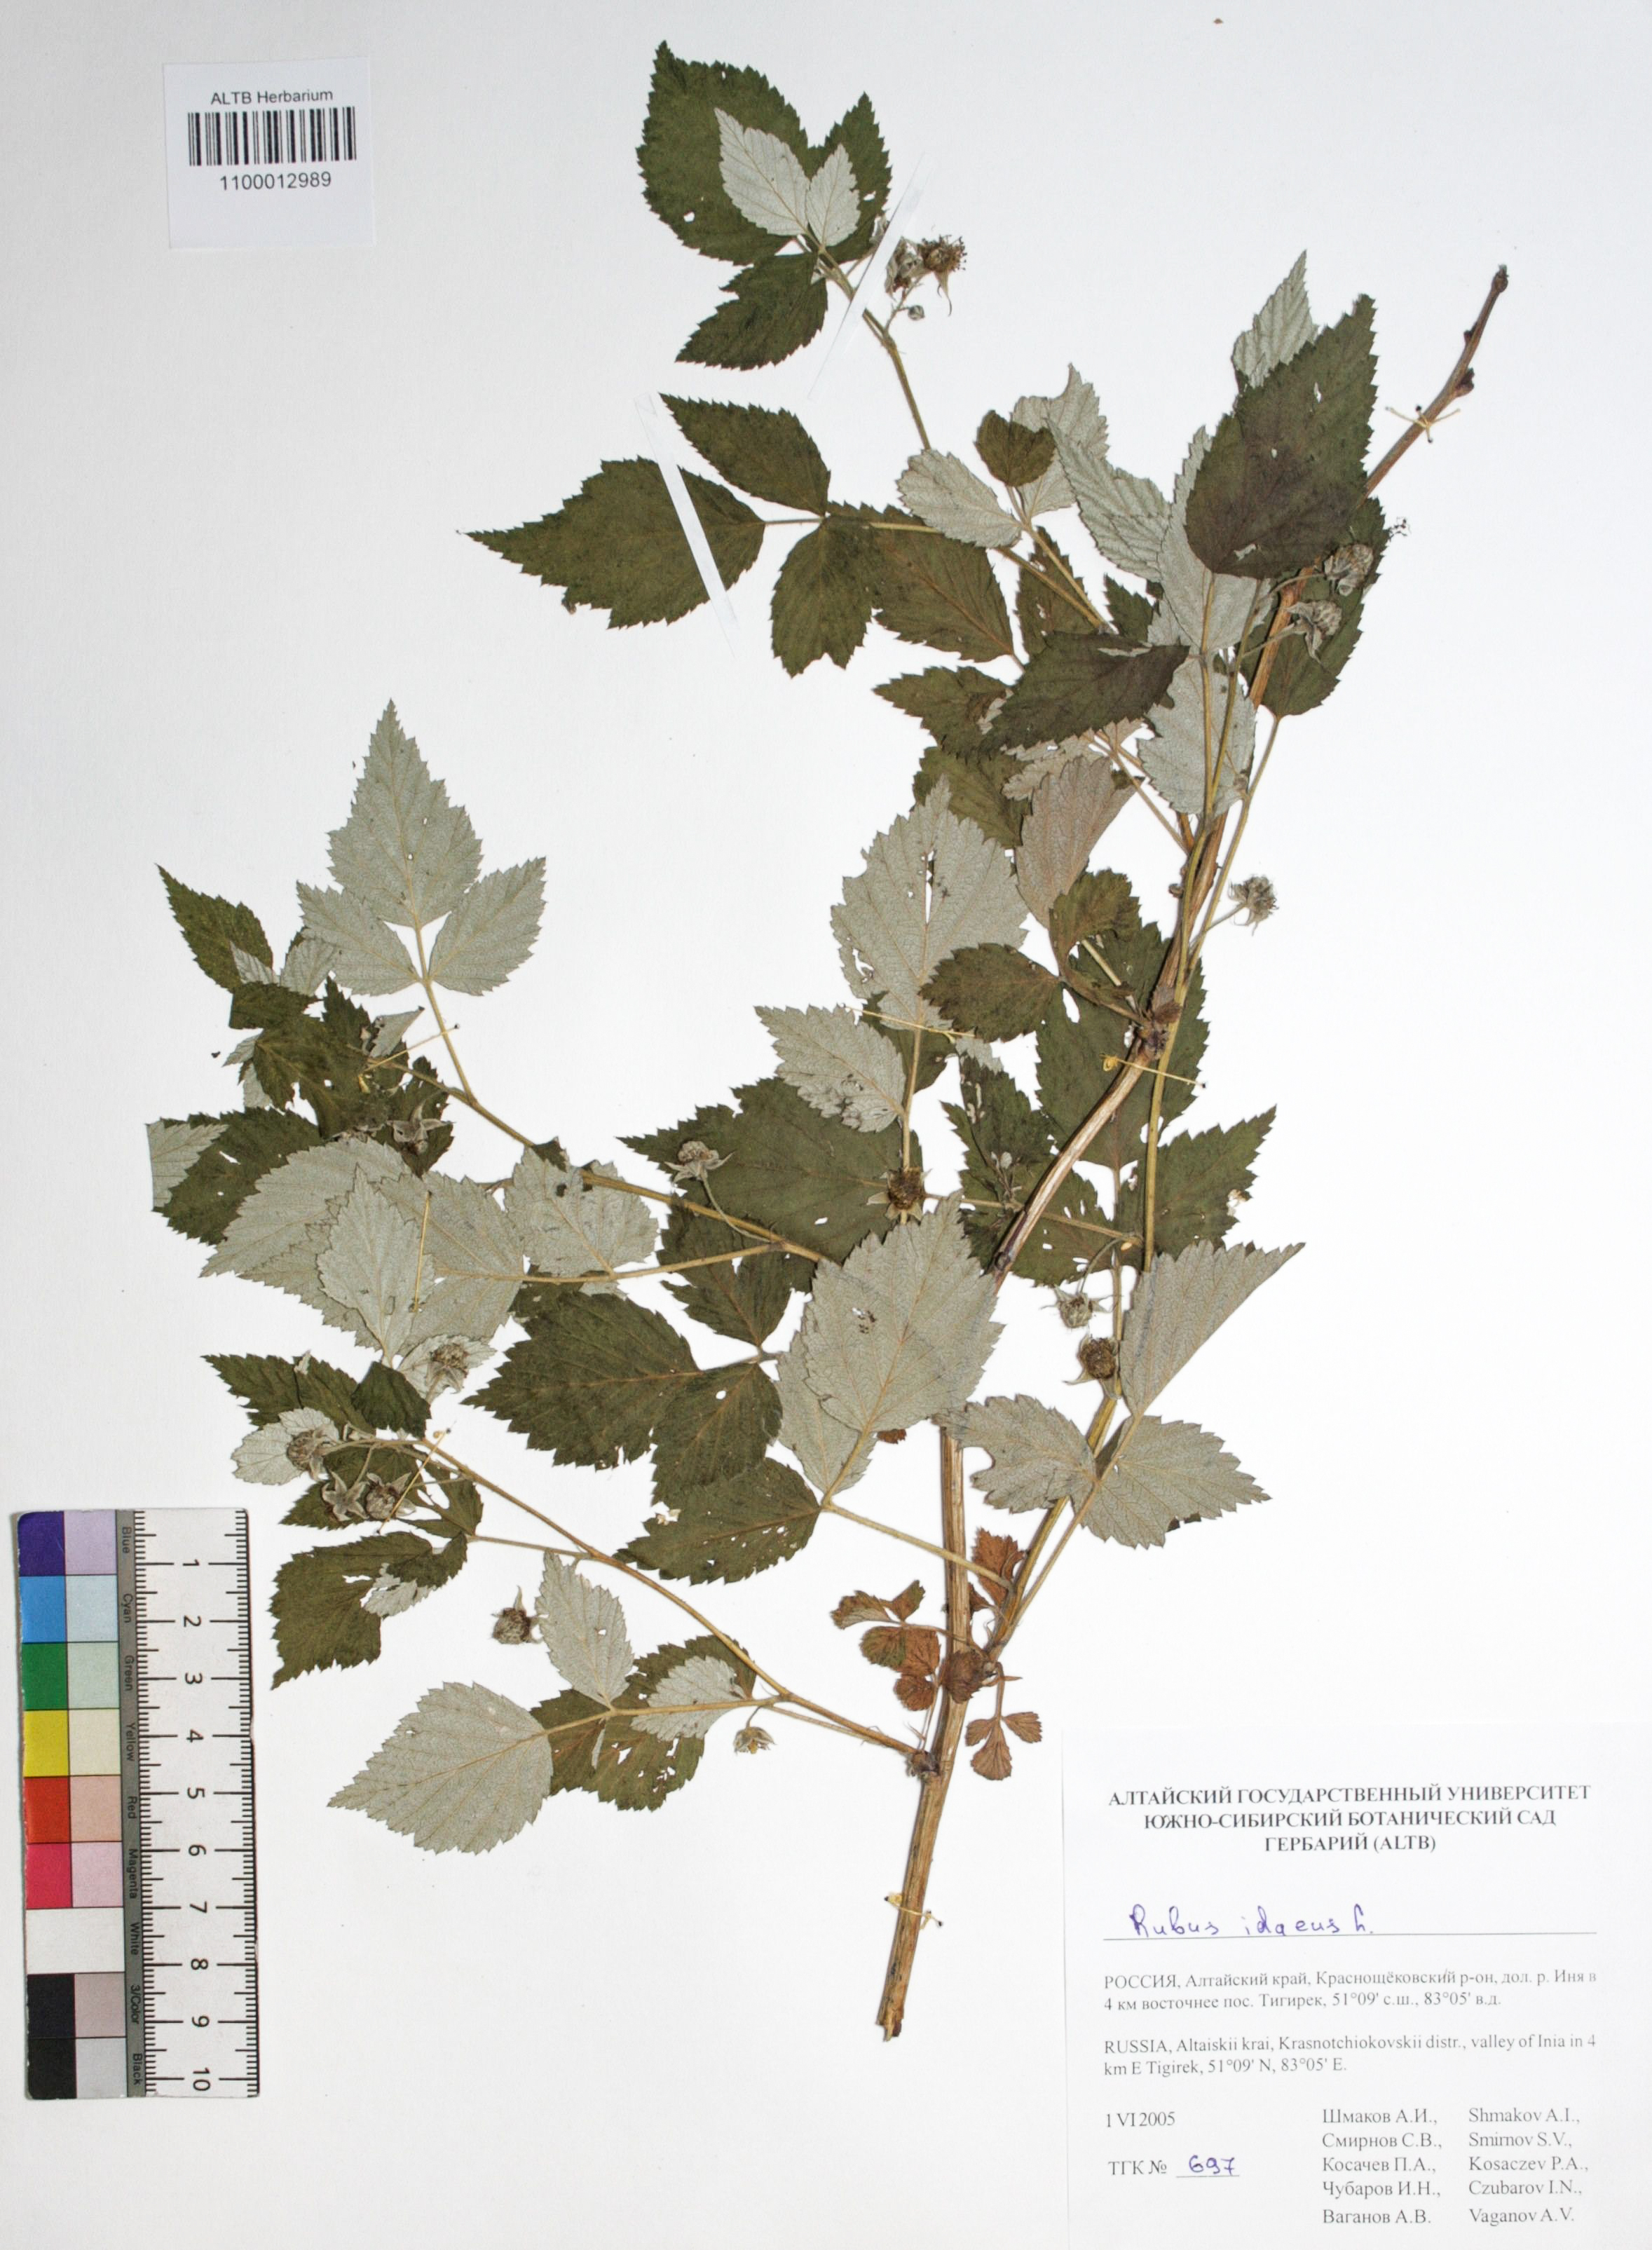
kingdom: Plantae
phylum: Tracheophyta
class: Magnoliopsida
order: Rosales
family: Rosaceae
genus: Rubus
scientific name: Rubus idaeus
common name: Raspberry
